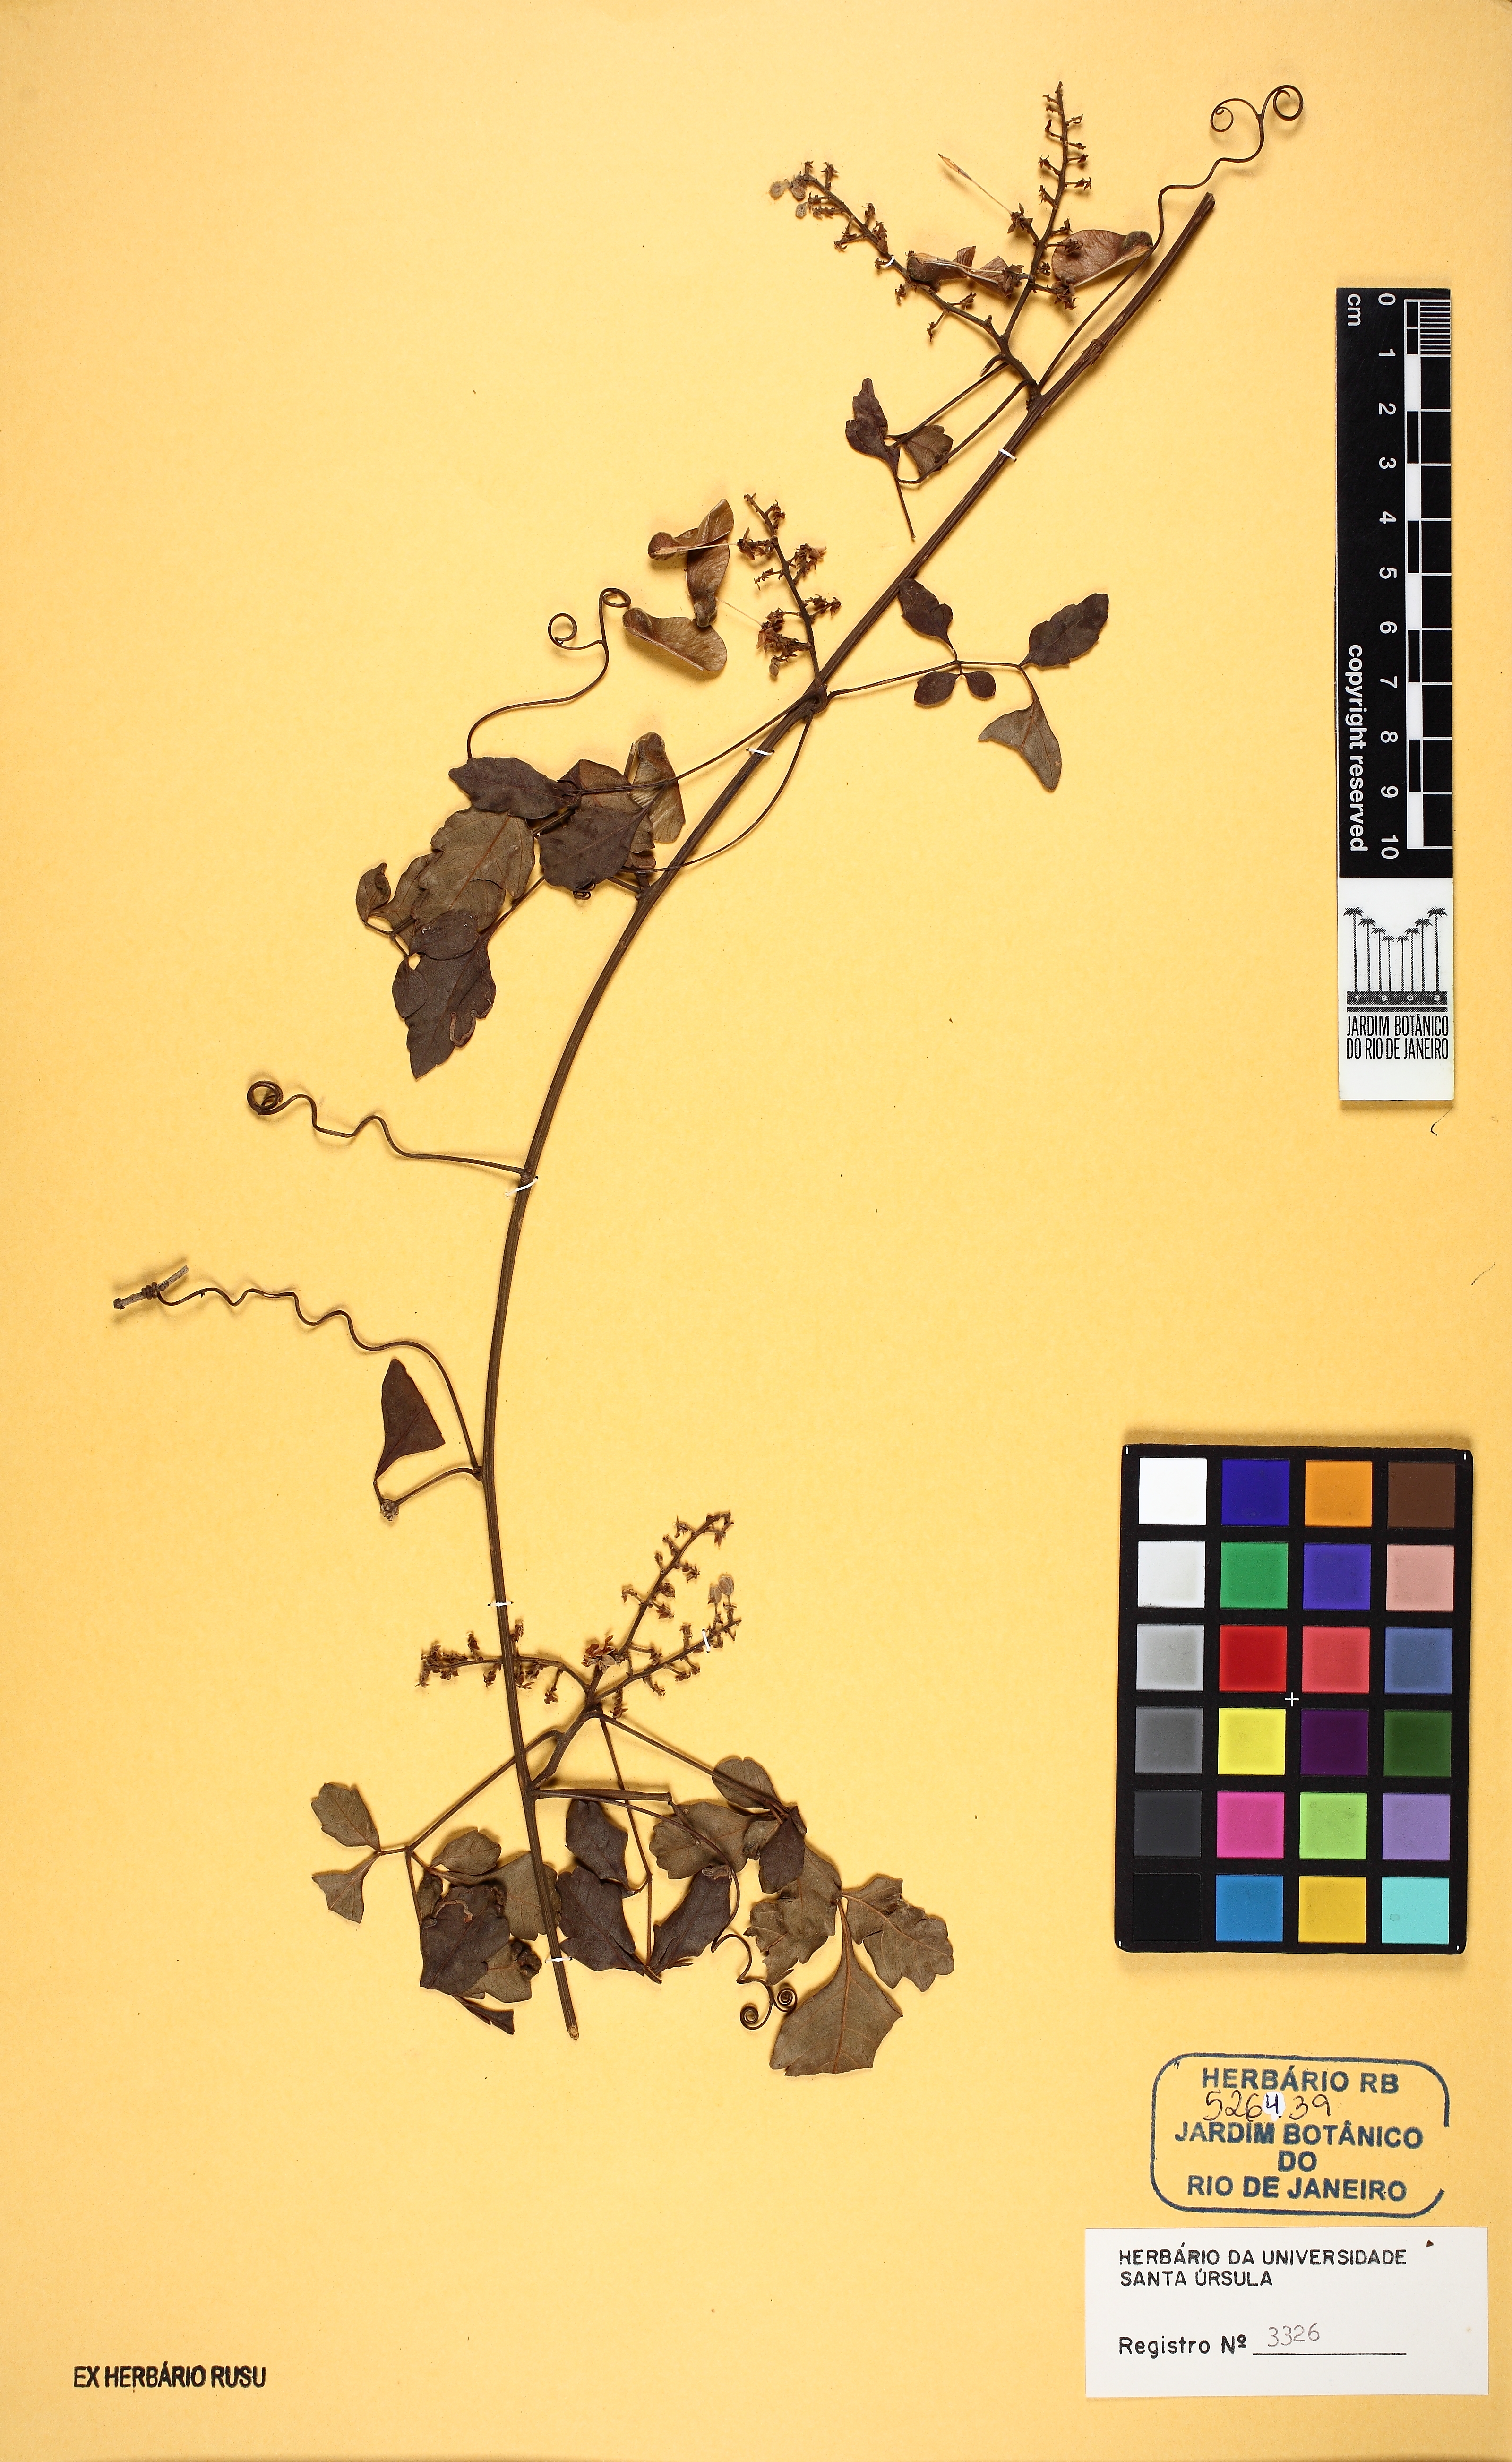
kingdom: Plantae
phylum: Tracheophyta
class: Magnoliopsida
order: Sapindales
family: Sapindaceae
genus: Serjania
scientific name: Serjania clematidifolia
